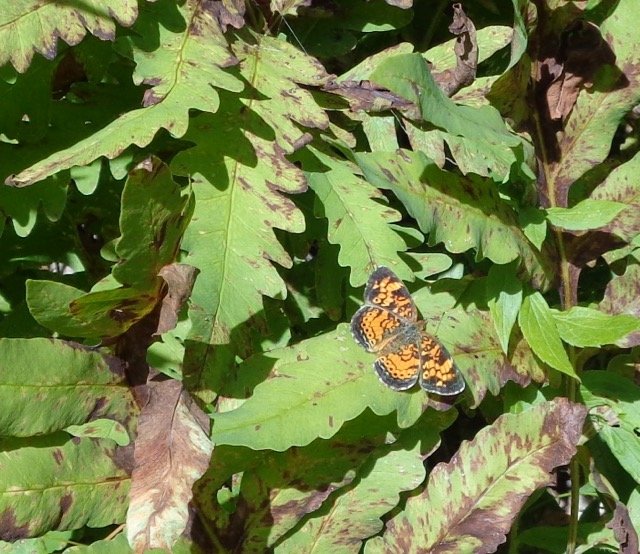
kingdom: Animalia
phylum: Arthropoda
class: Insecta
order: Lepidoptera
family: Nymphalidae
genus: Phyciodes
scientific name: Phyciodes tharos
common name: Pearl Crescent
